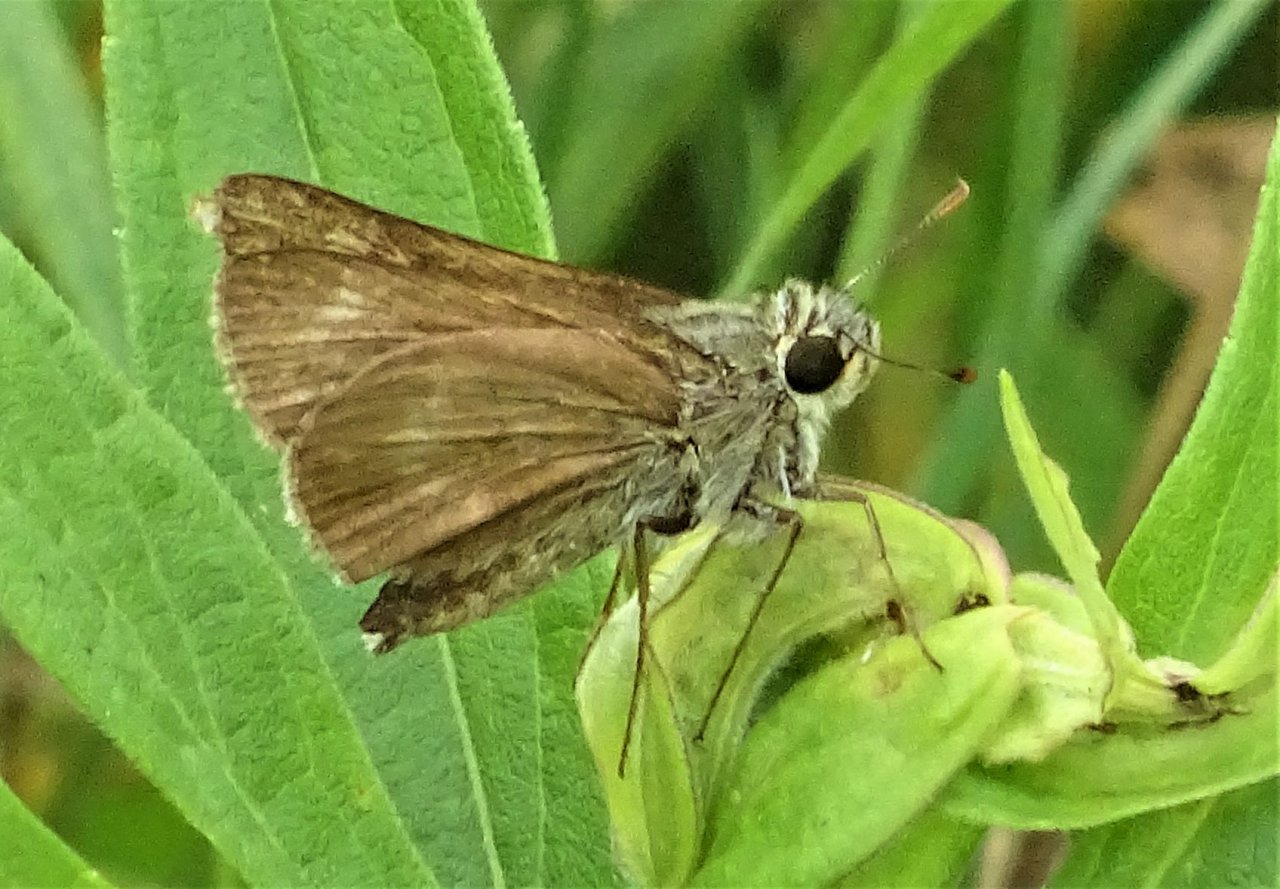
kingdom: Animalia
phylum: Arthropoda
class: Insecta
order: Lepidoptera
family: Hesperiidae
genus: Polites
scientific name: Polites egeremet
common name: Northern Broken-Dash
